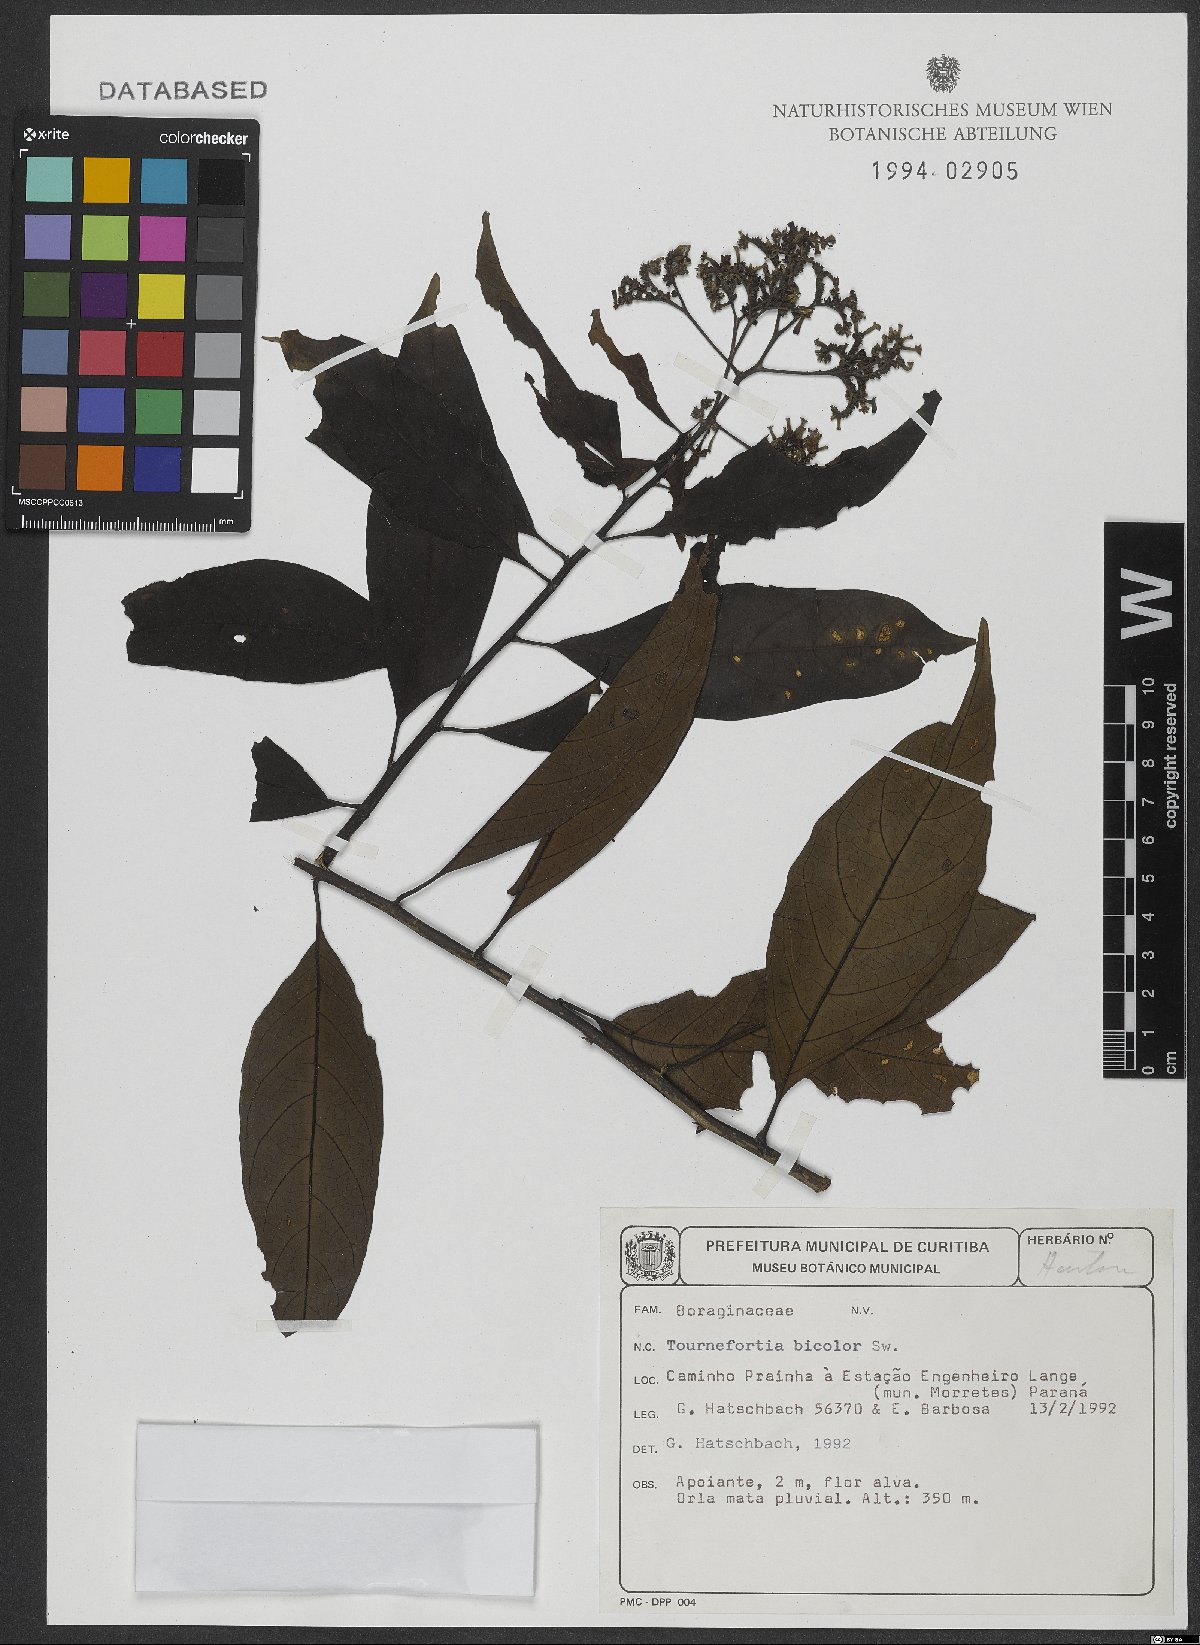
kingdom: Plantae
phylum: Tracheophyta
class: Magnoliopsida
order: Boraginales
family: Heliotropiaceae
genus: Heliotropium
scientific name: Heliotropium verdcourtii
